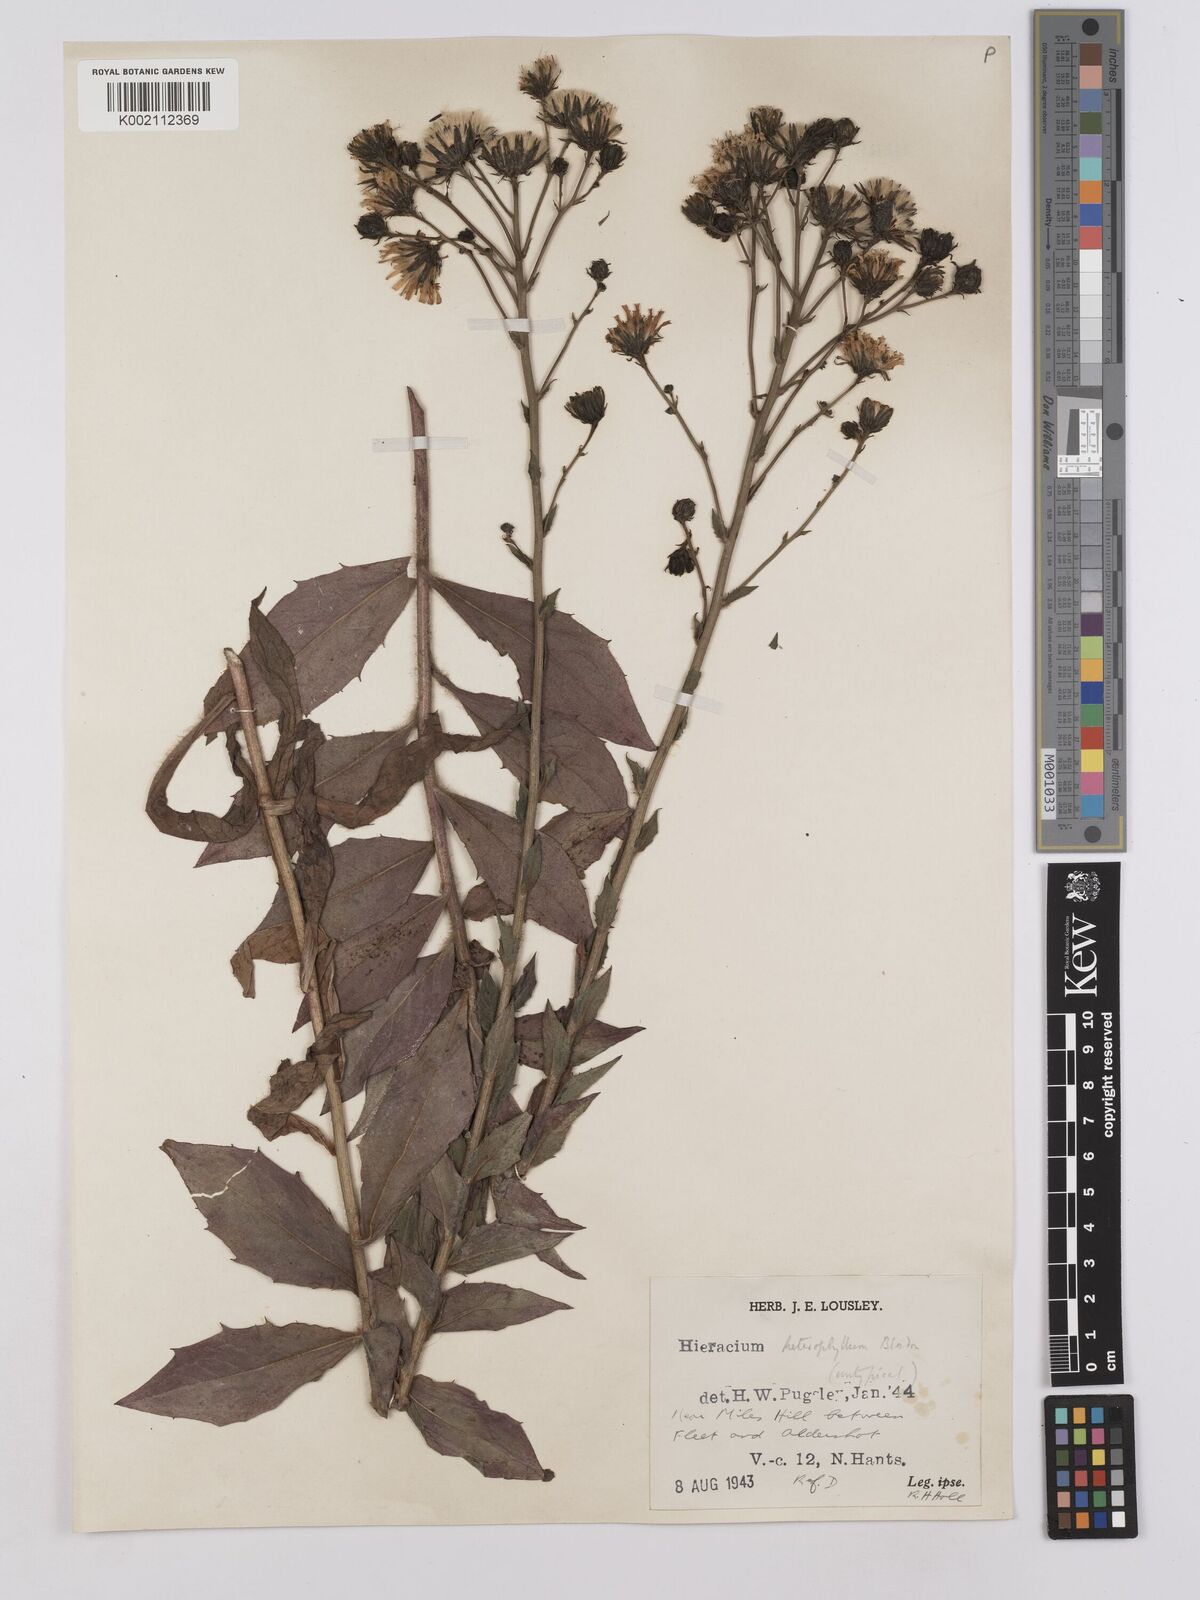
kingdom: Plantae
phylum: Tracheophyta
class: Magnoliopsida
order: Asterales
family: Asteraceae
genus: Hieracium
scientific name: Hieracium sabaudum
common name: New england hawkweed
